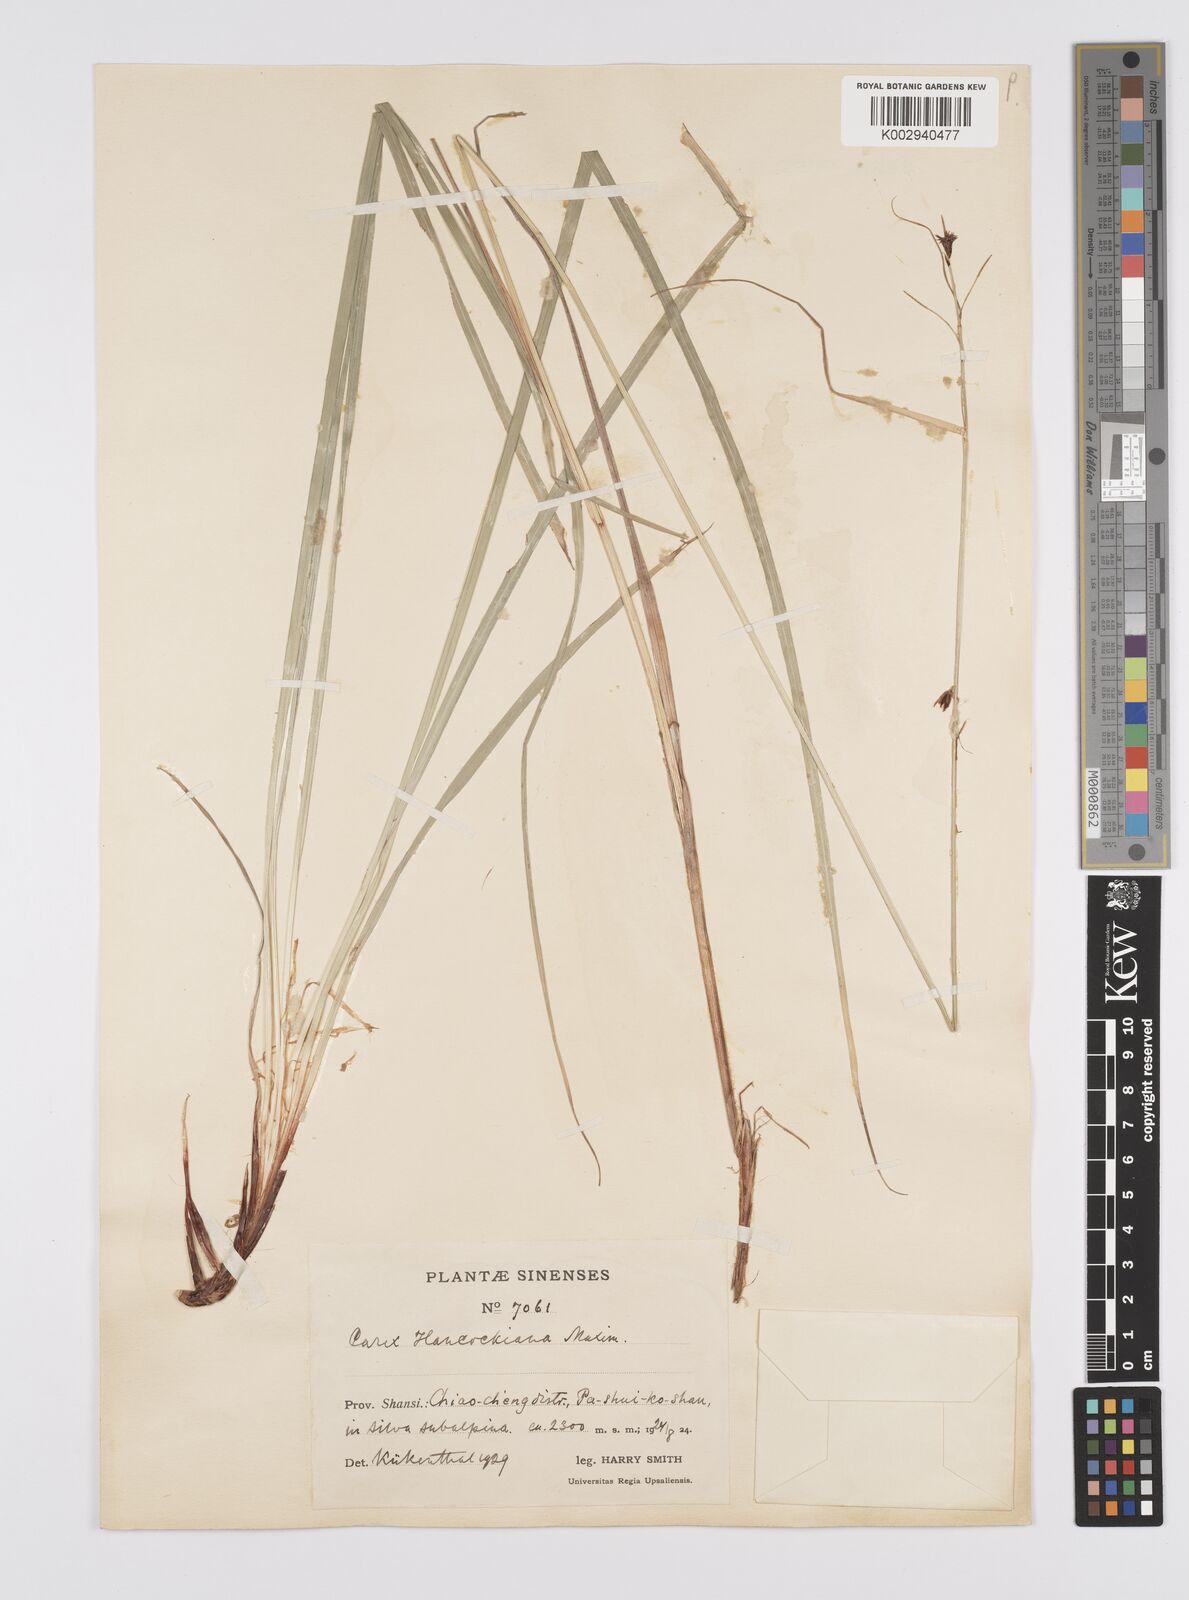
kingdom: Plantae
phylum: Tracheophyta
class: Liliopsida
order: Poales
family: Cyperaceae
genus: Carex
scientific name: Carex hancockiana
